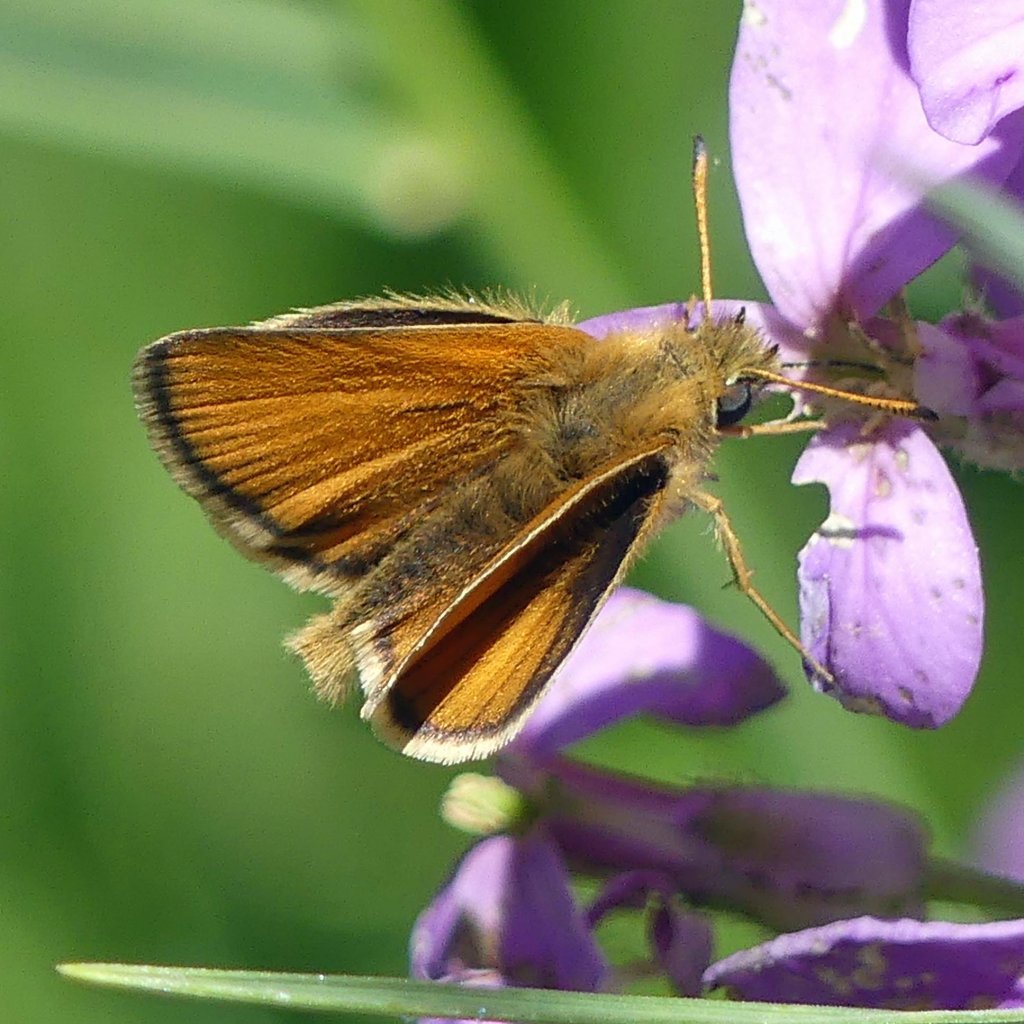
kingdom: Animalia
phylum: Arthropoda
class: Insecta
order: Lepidoptera
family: Hesperiidae
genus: Thymelicus
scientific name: Thymelicus lineola
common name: European Skipper
